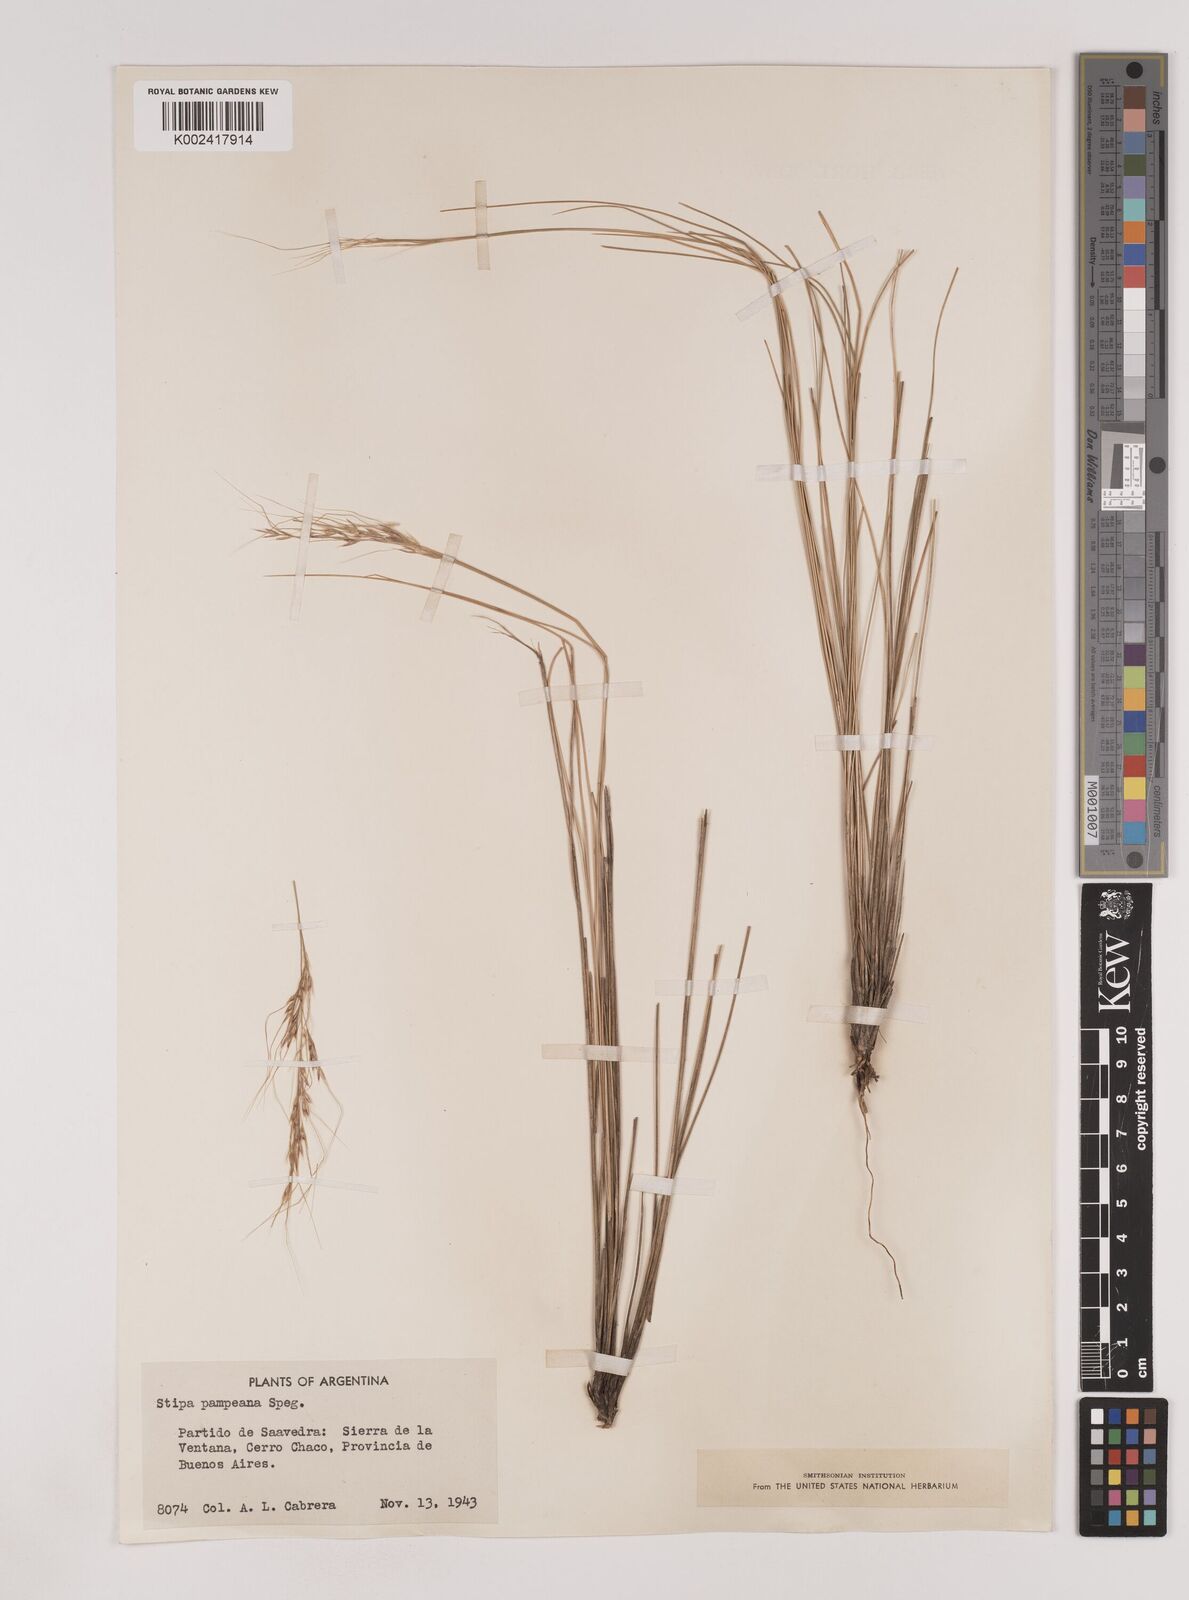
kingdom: Plantae
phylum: Tracheophyta
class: Liliopsida
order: Poales
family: Poaceae
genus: Nassella
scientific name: Nassella pampeana
